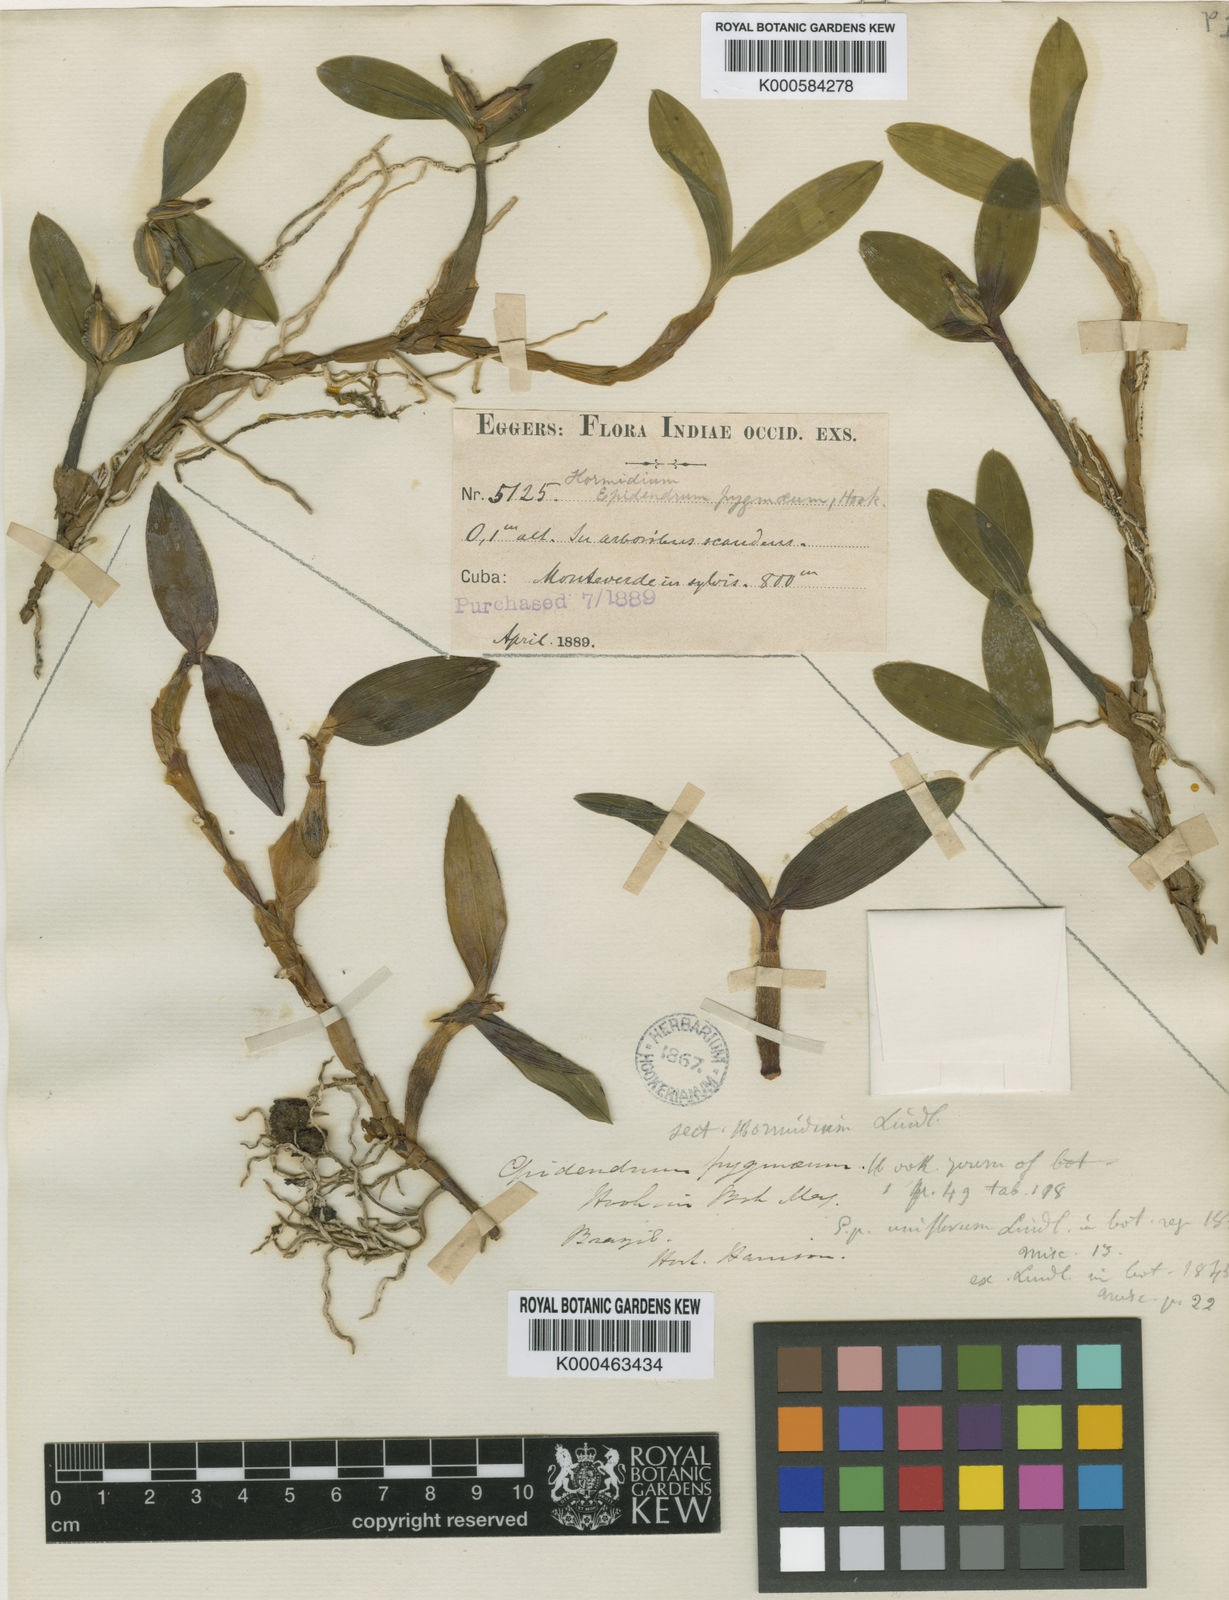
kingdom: Plantae
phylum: Tracheophyta
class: Liliopsida
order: Asparagales
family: Orchidaceae
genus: Prosthechea
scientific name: Prosthechea pygmaea
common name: Dwarf butterfly orchid
